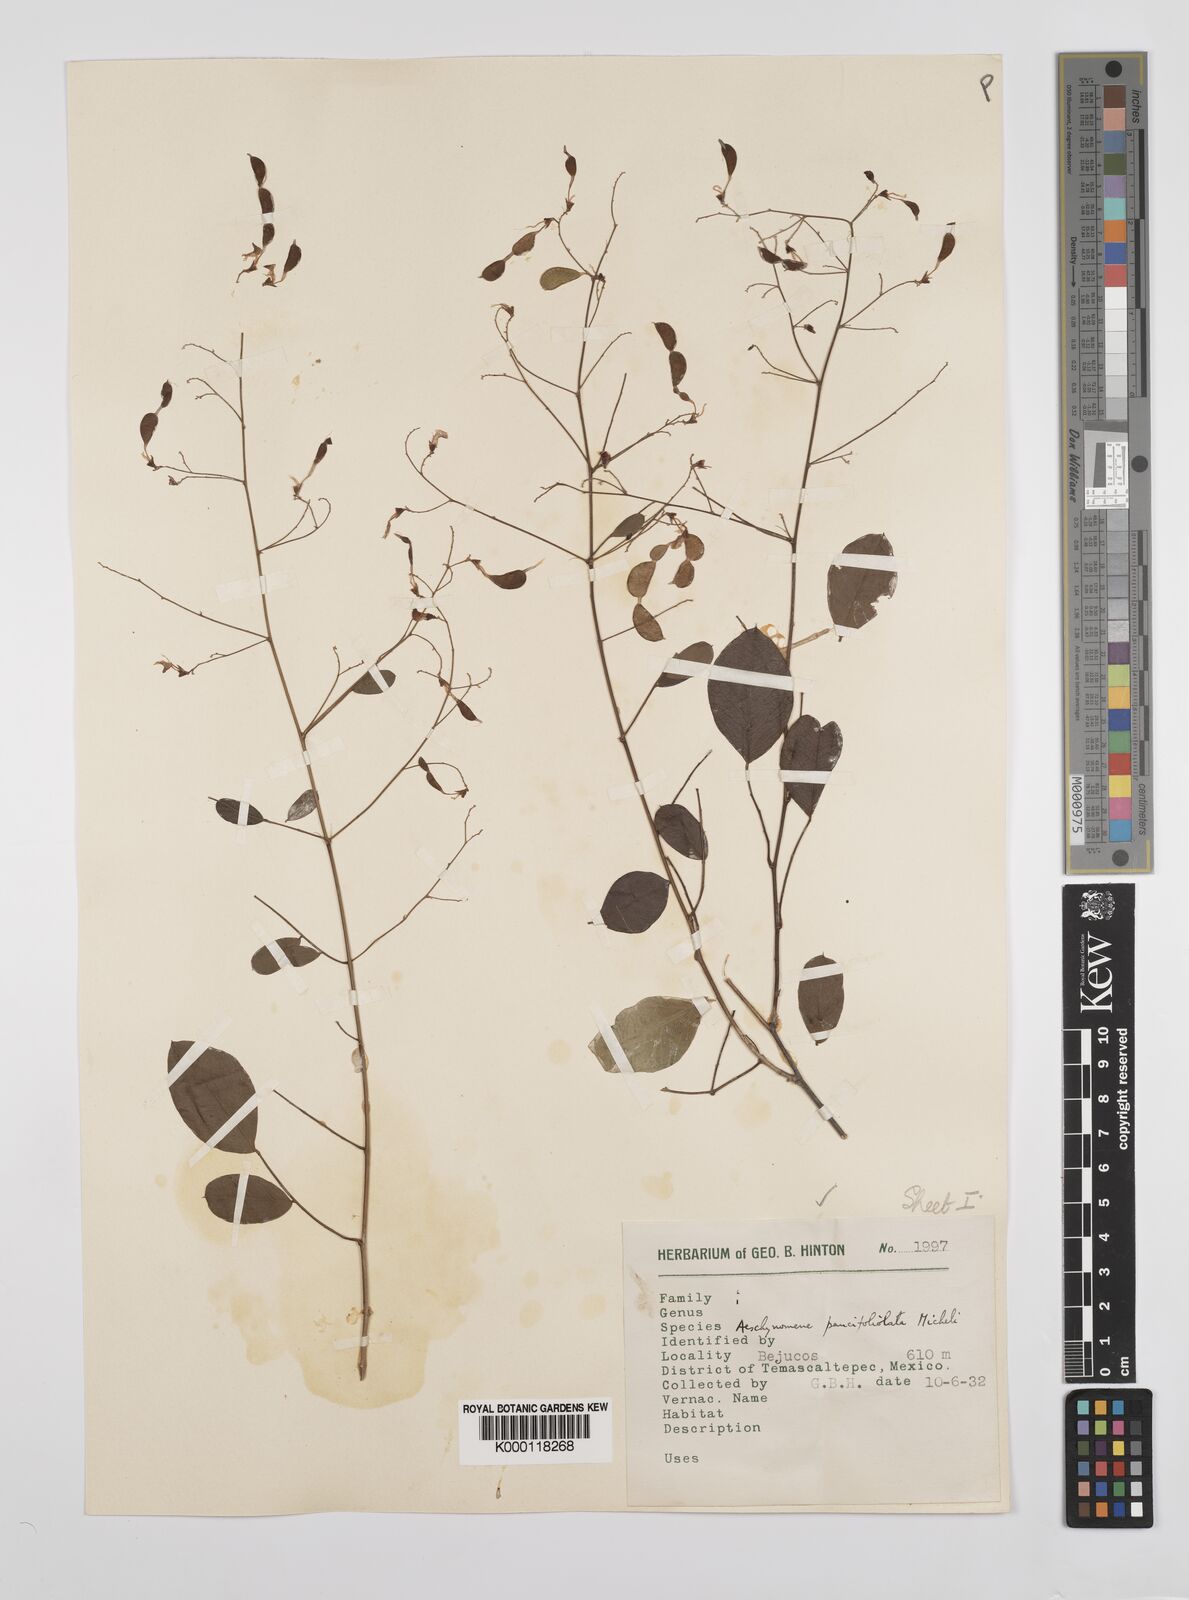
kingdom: Plantae
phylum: Tracheophyta
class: Magnoliopsida
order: Fabales
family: Fabaceae
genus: Ctenodon
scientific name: Ctenodon paucifoliolatus
